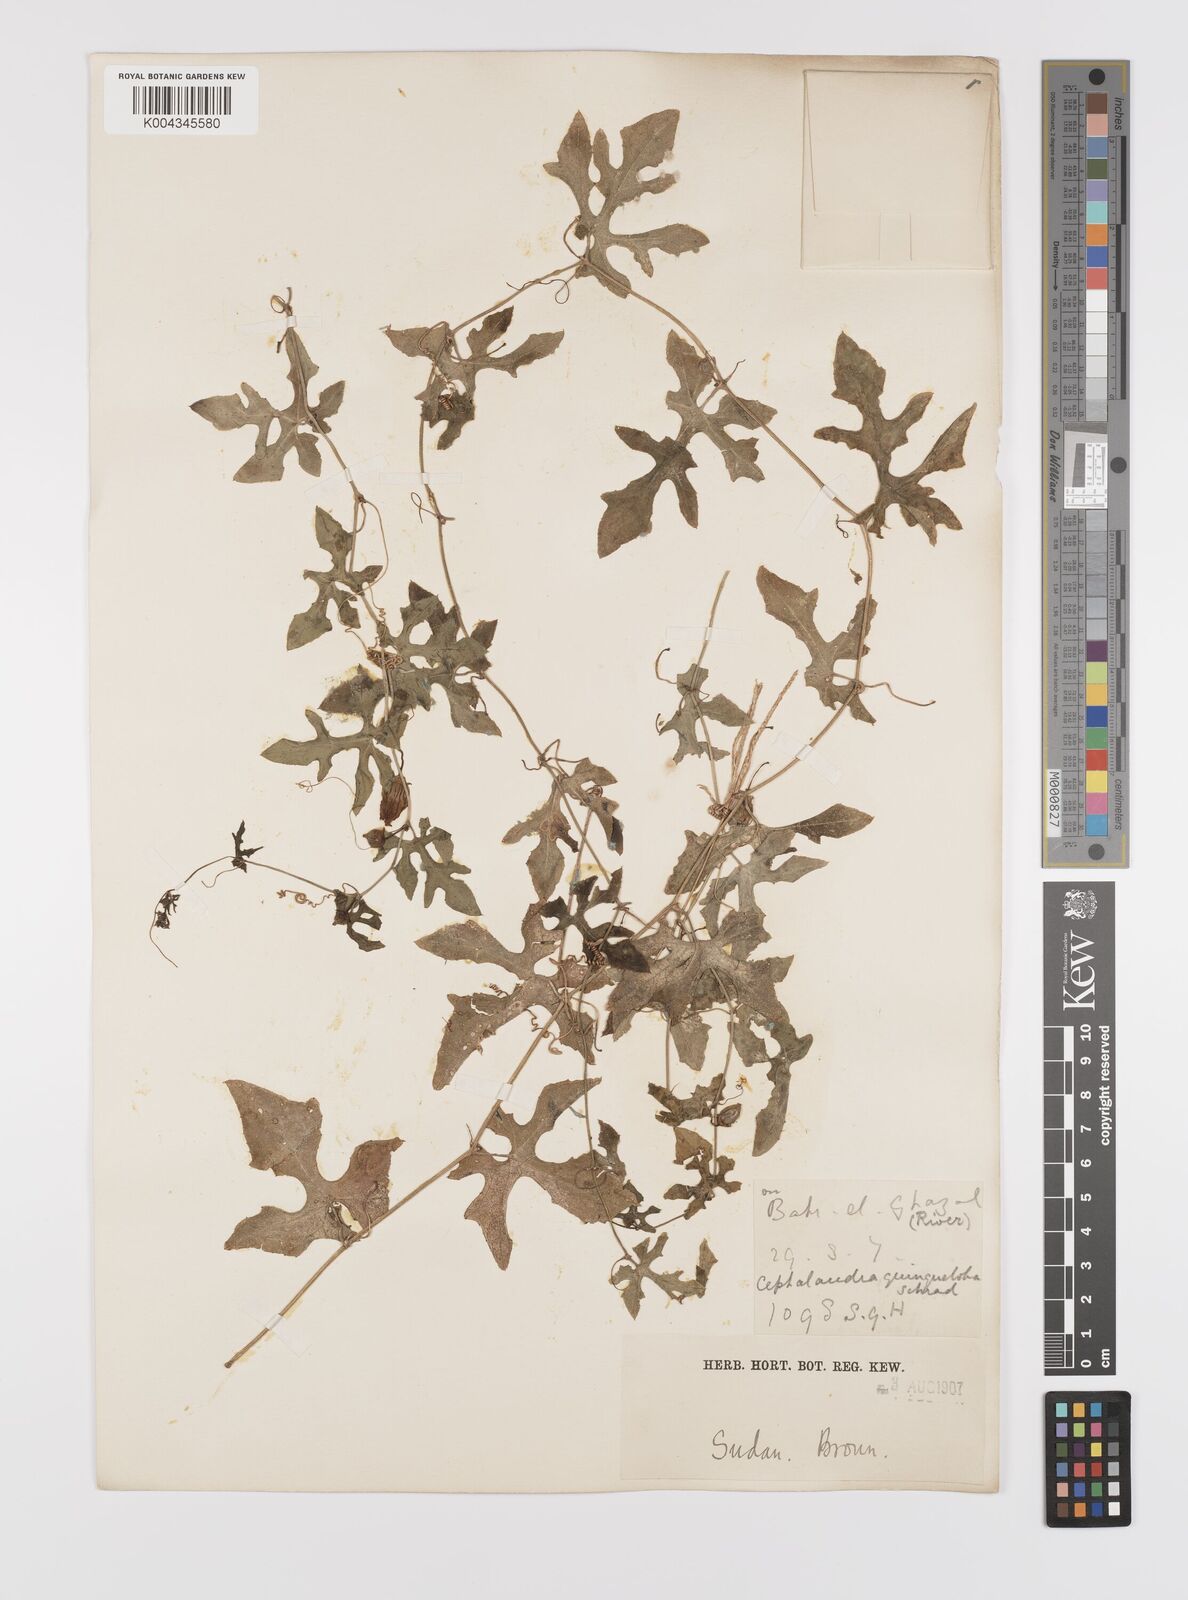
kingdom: Plantae
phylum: Tracheophyta
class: Magnoliopsida
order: Cucurbitales
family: Cucurbitaceae
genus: Coccinia
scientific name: Coccinia grandis
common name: Ivy gourd
